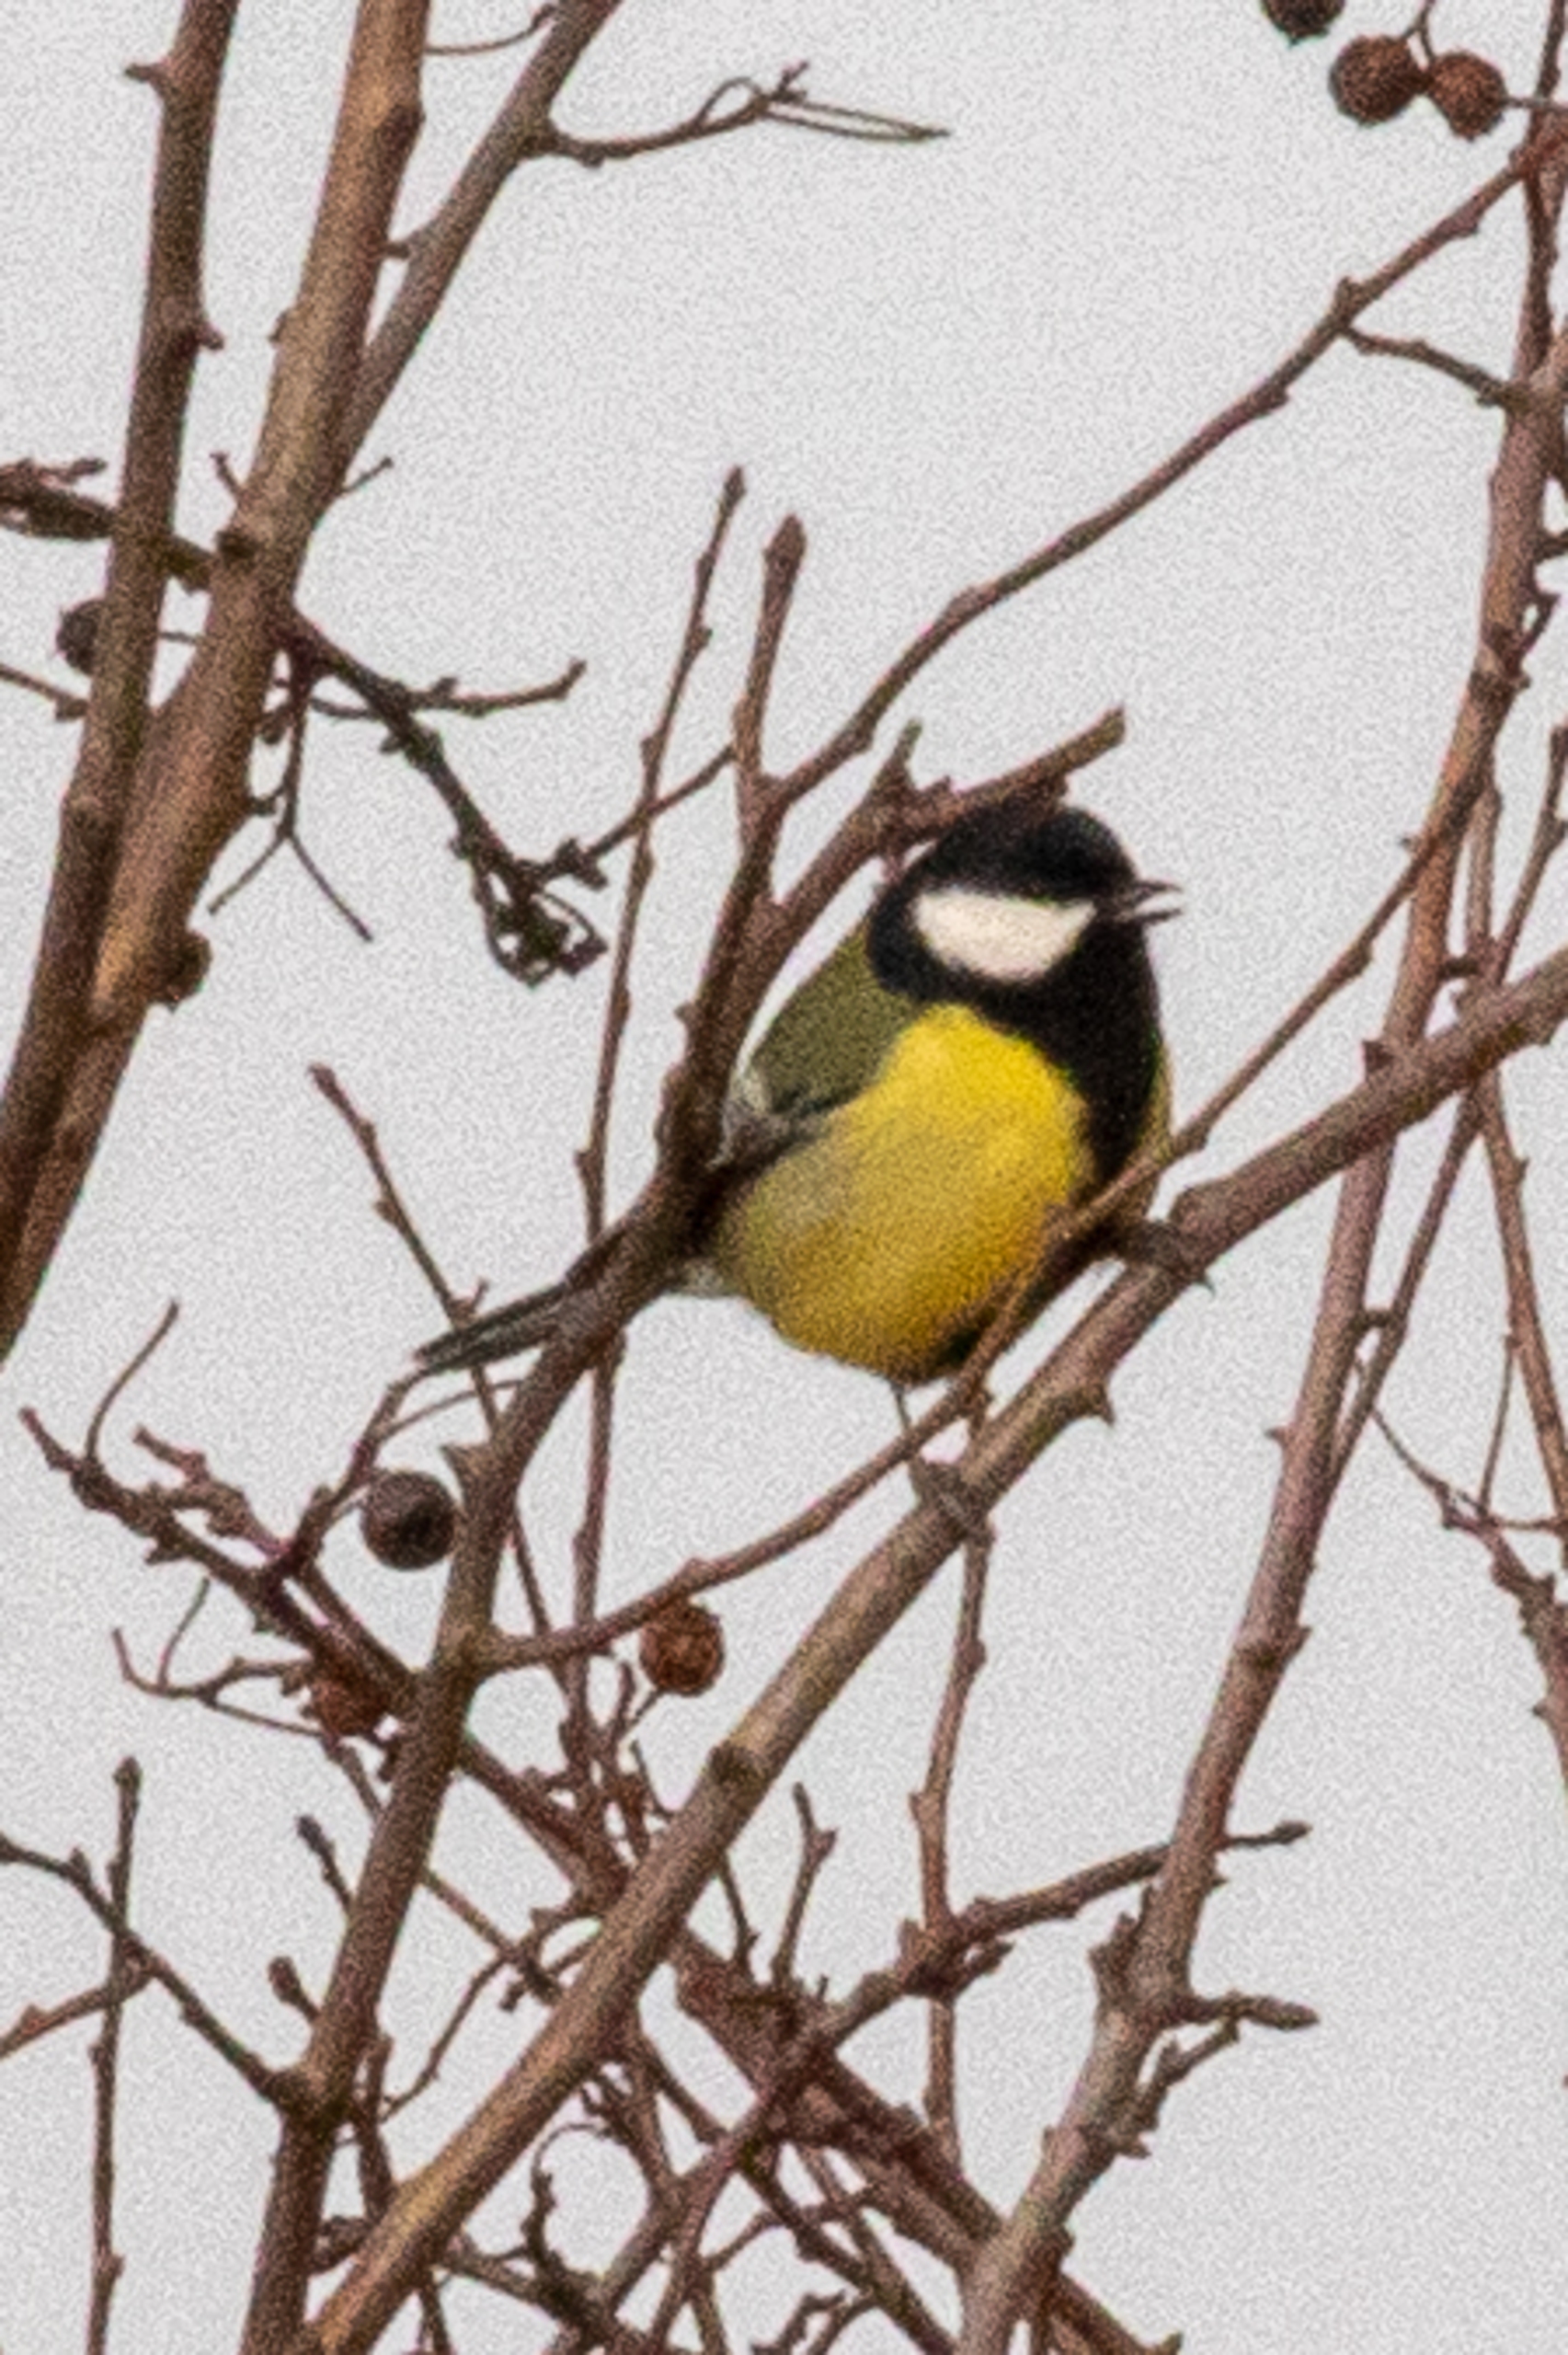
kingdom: Animalia
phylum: Chordata
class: Aves
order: Passeriformes
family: Paridae
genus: Parus
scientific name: Parus major
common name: Musvit
